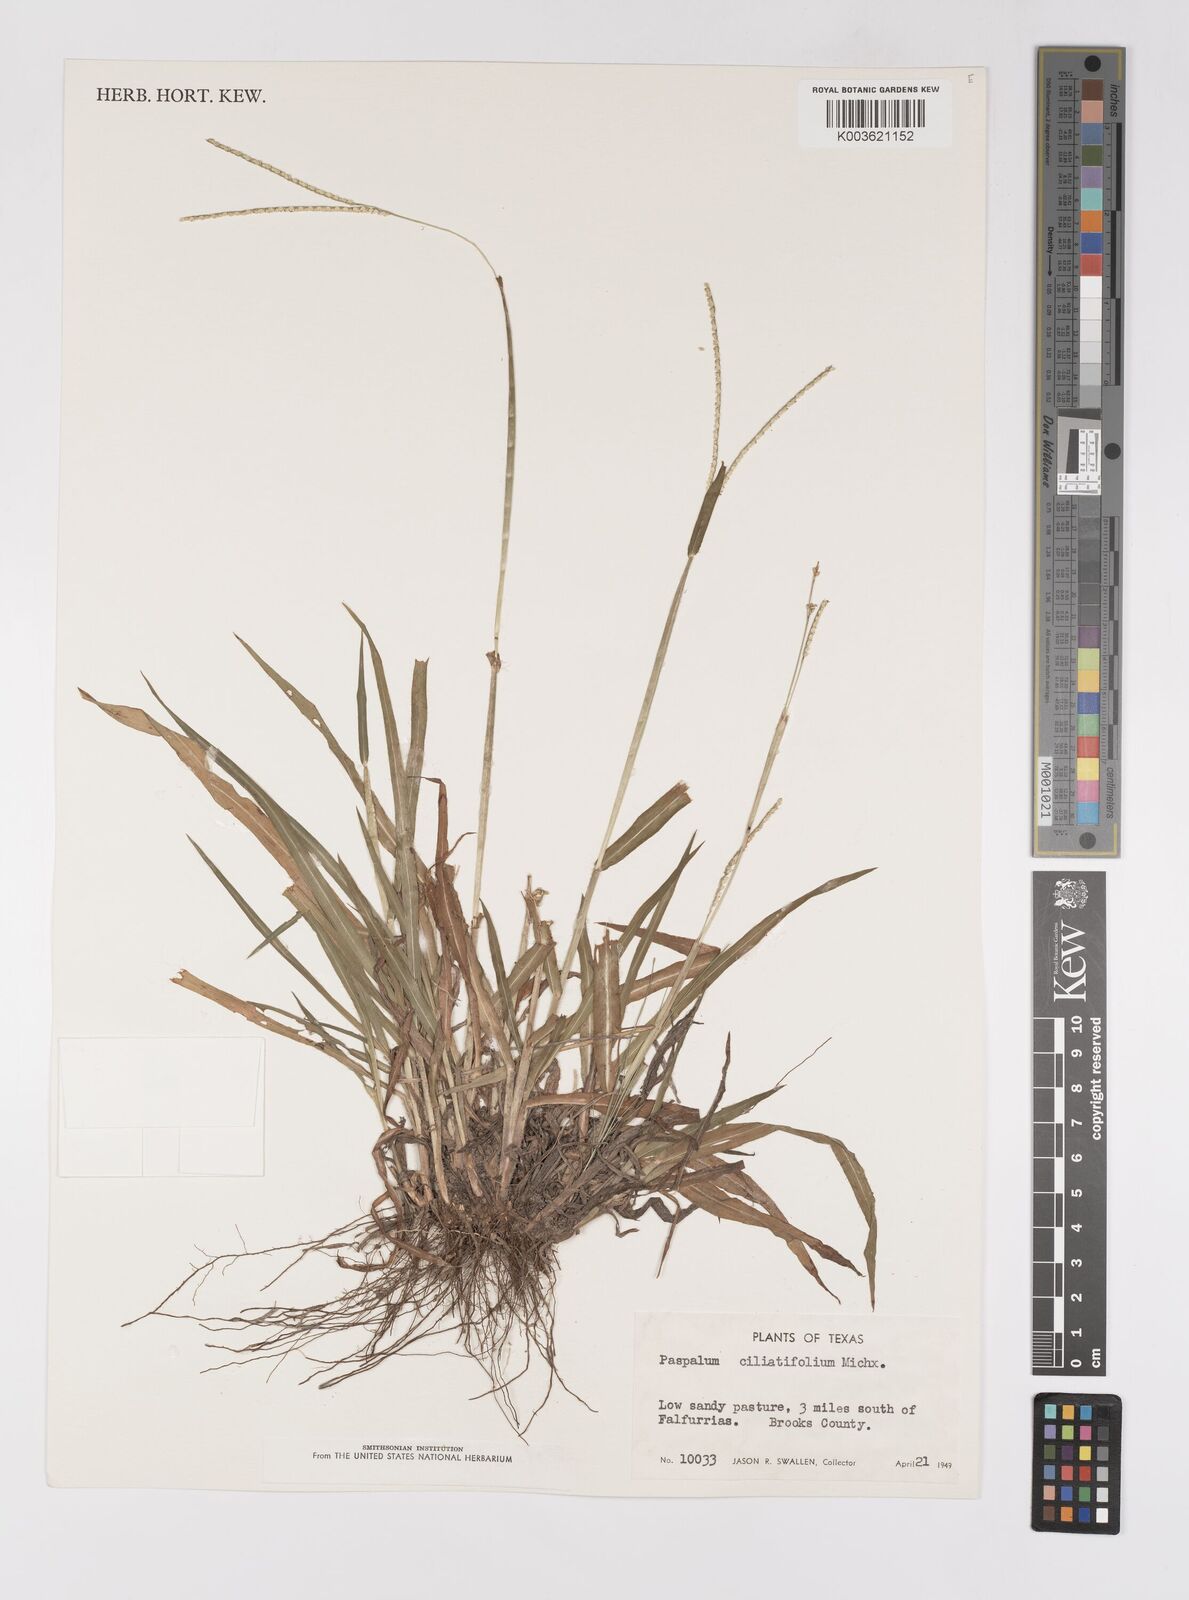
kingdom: Plantae
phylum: Tracheophyta
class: Liliopsida
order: Poales
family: Poaceae
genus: Paspalum
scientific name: Paspalum setaceum
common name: Slender paspalum
